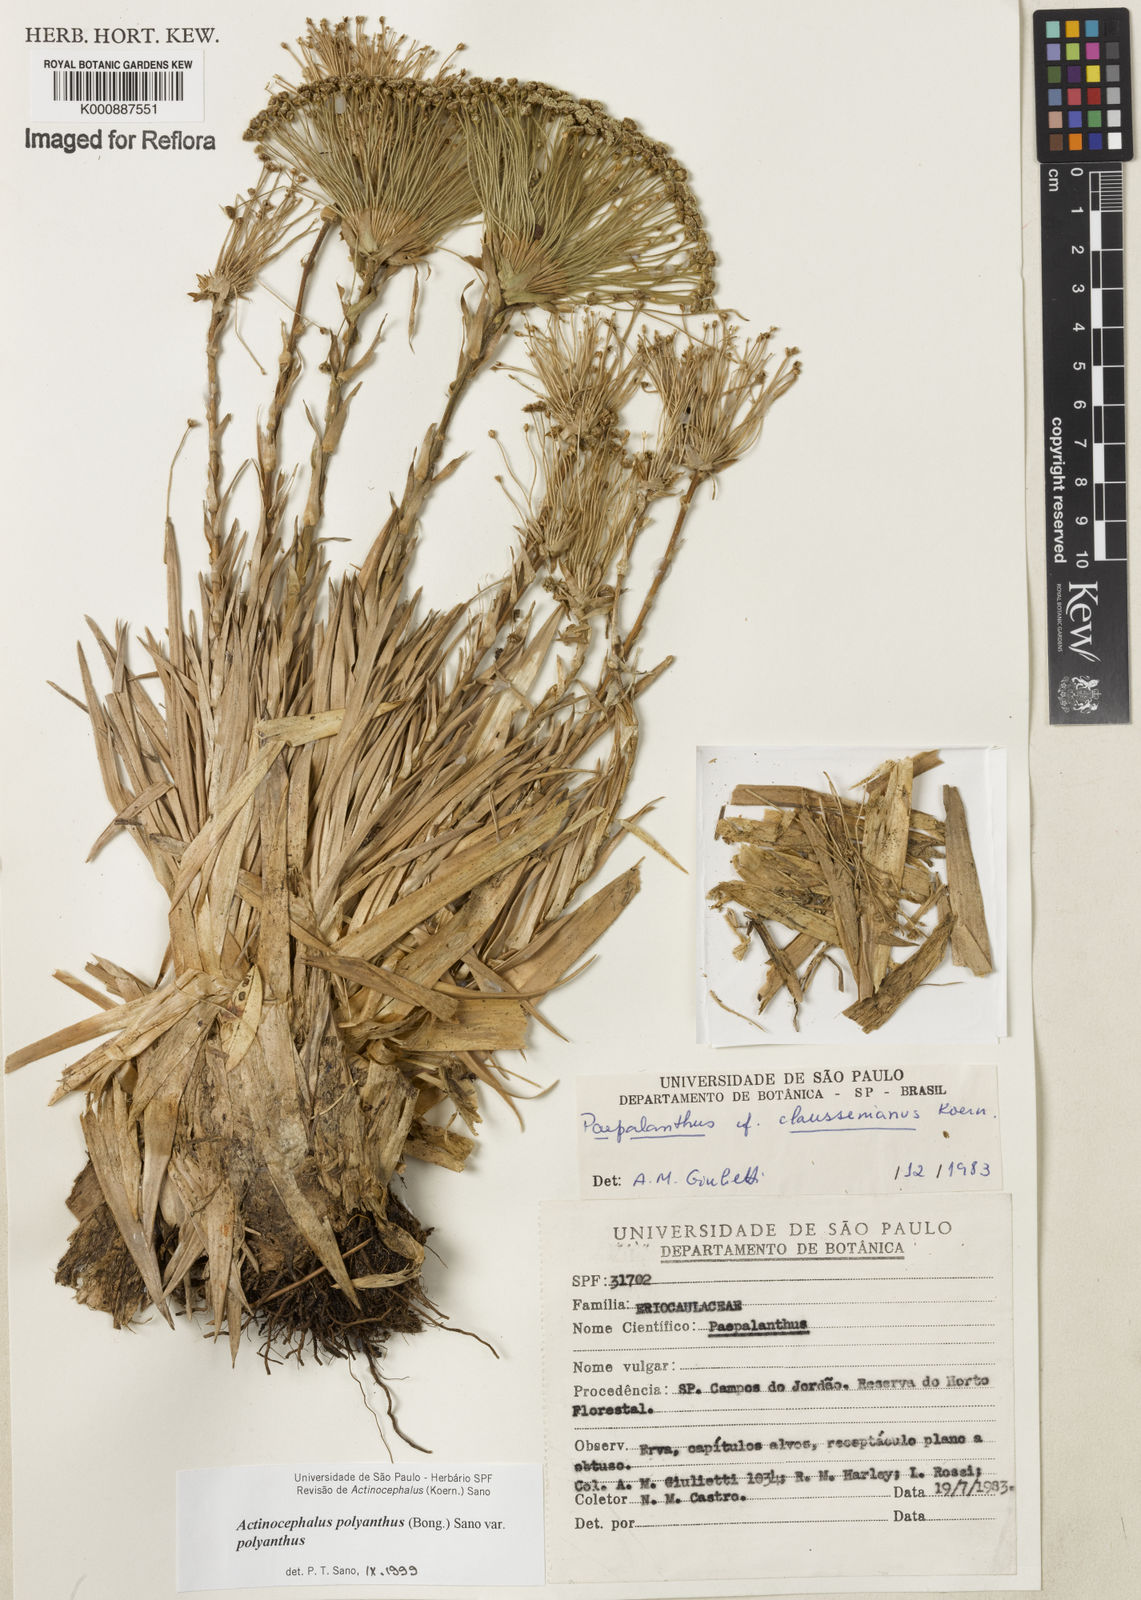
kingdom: Plantae
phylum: Tracheophyta
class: Liliopsida
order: Poales
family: Eriocaulaceae
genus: Paepalanthus
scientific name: Paepalanthus polyanthus
